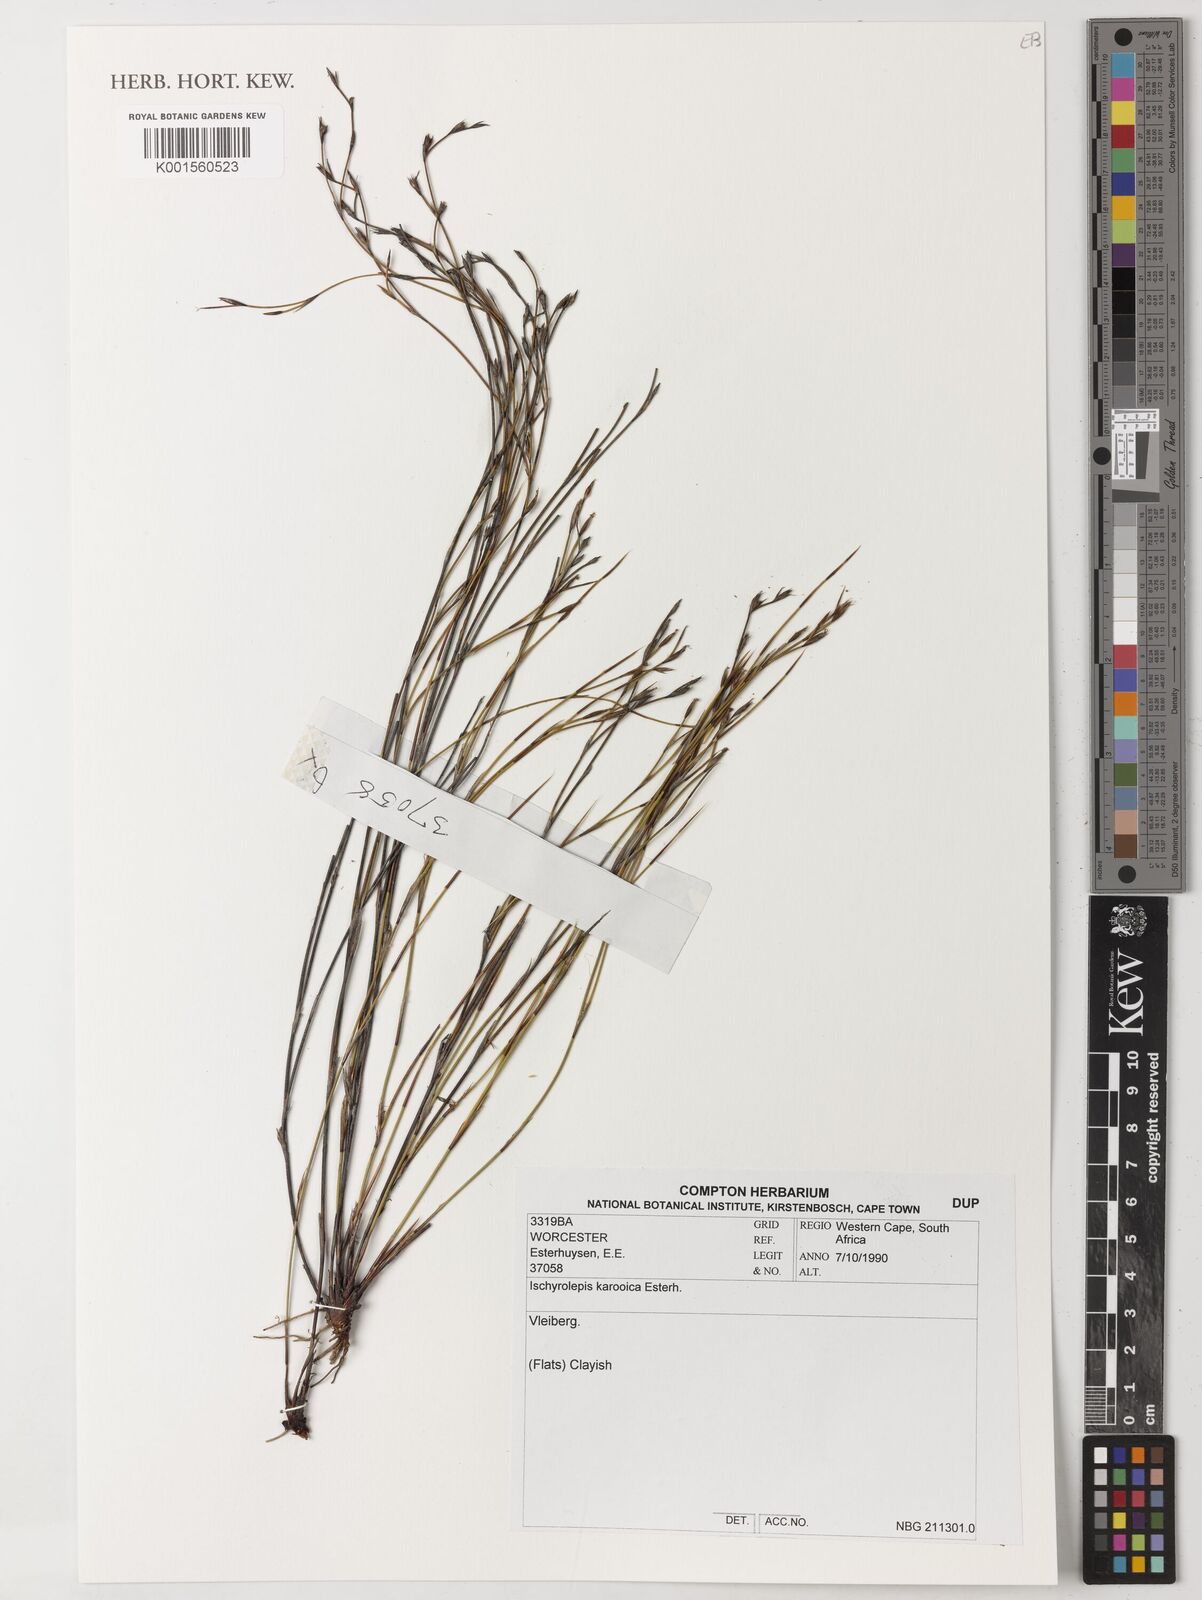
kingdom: Plantae
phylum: Tracheophyta
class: Liliopsida
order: Poales
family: Restionaceae
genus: Restio
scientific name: Restio karooicus
